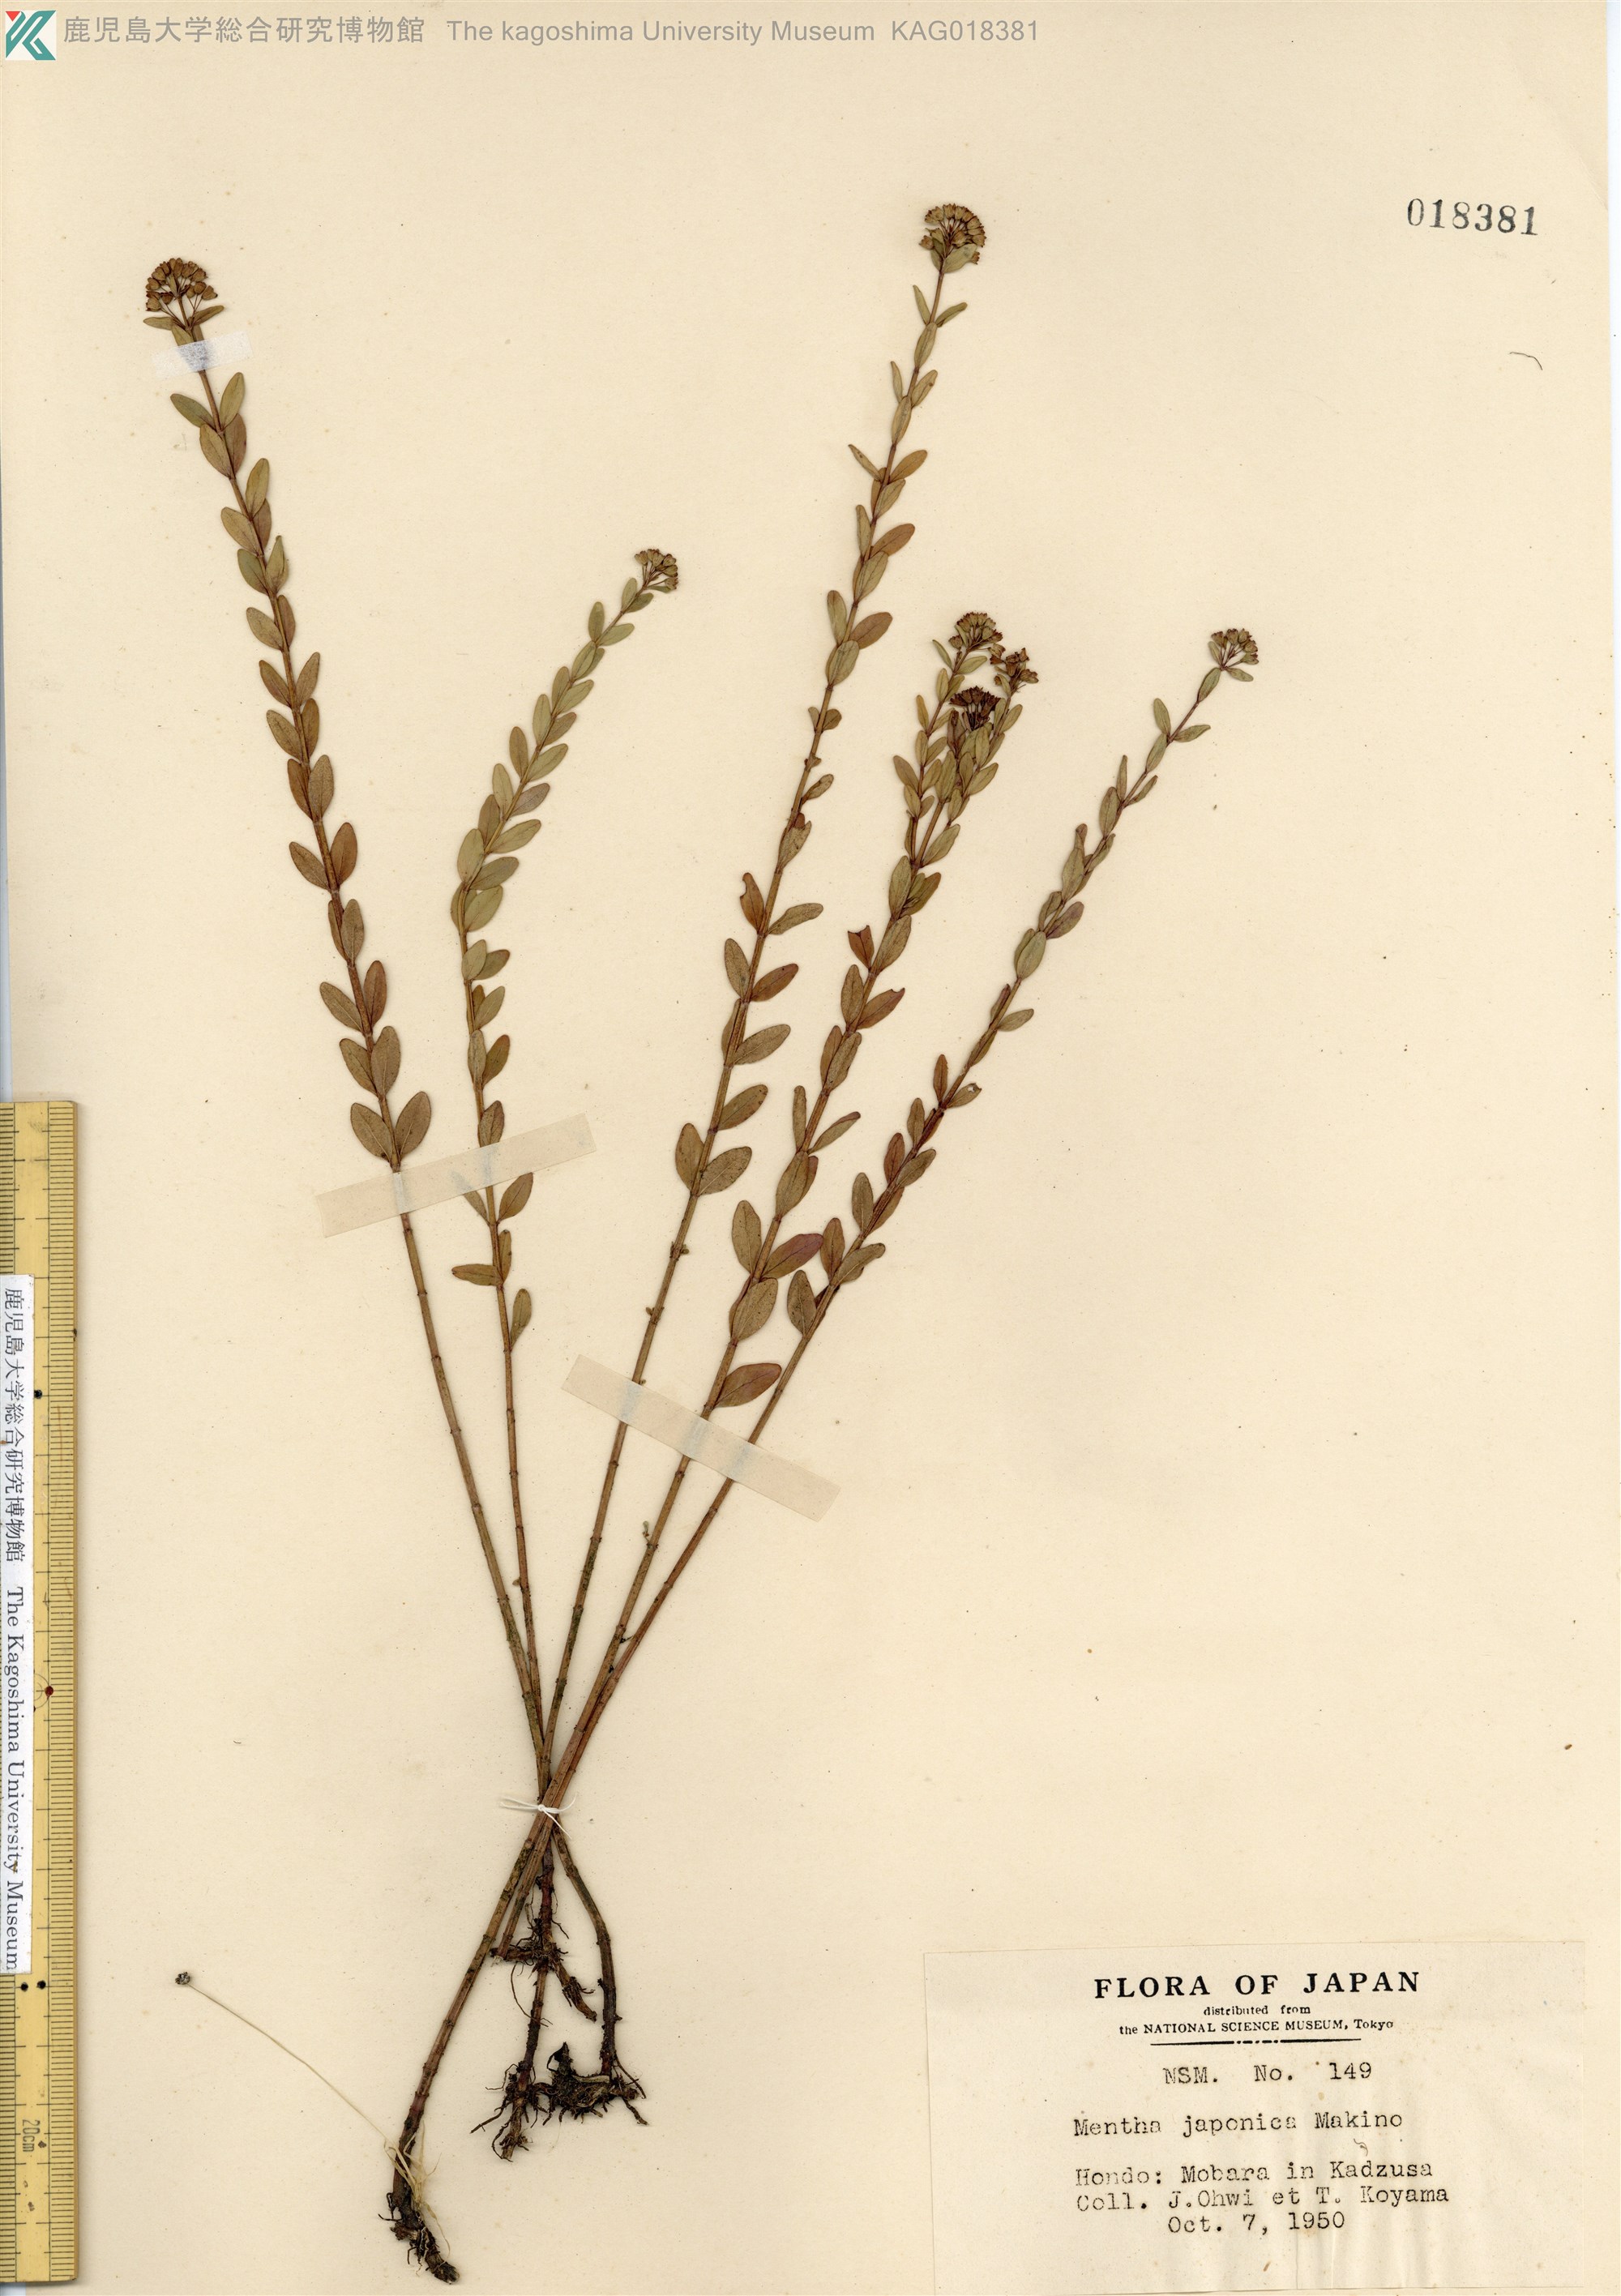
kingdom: Plantae
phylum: Tracheophyta
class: Magnoliopsida
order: Lamiales
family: Lamiaceae
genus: Mentha
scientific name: Mentha japonica
